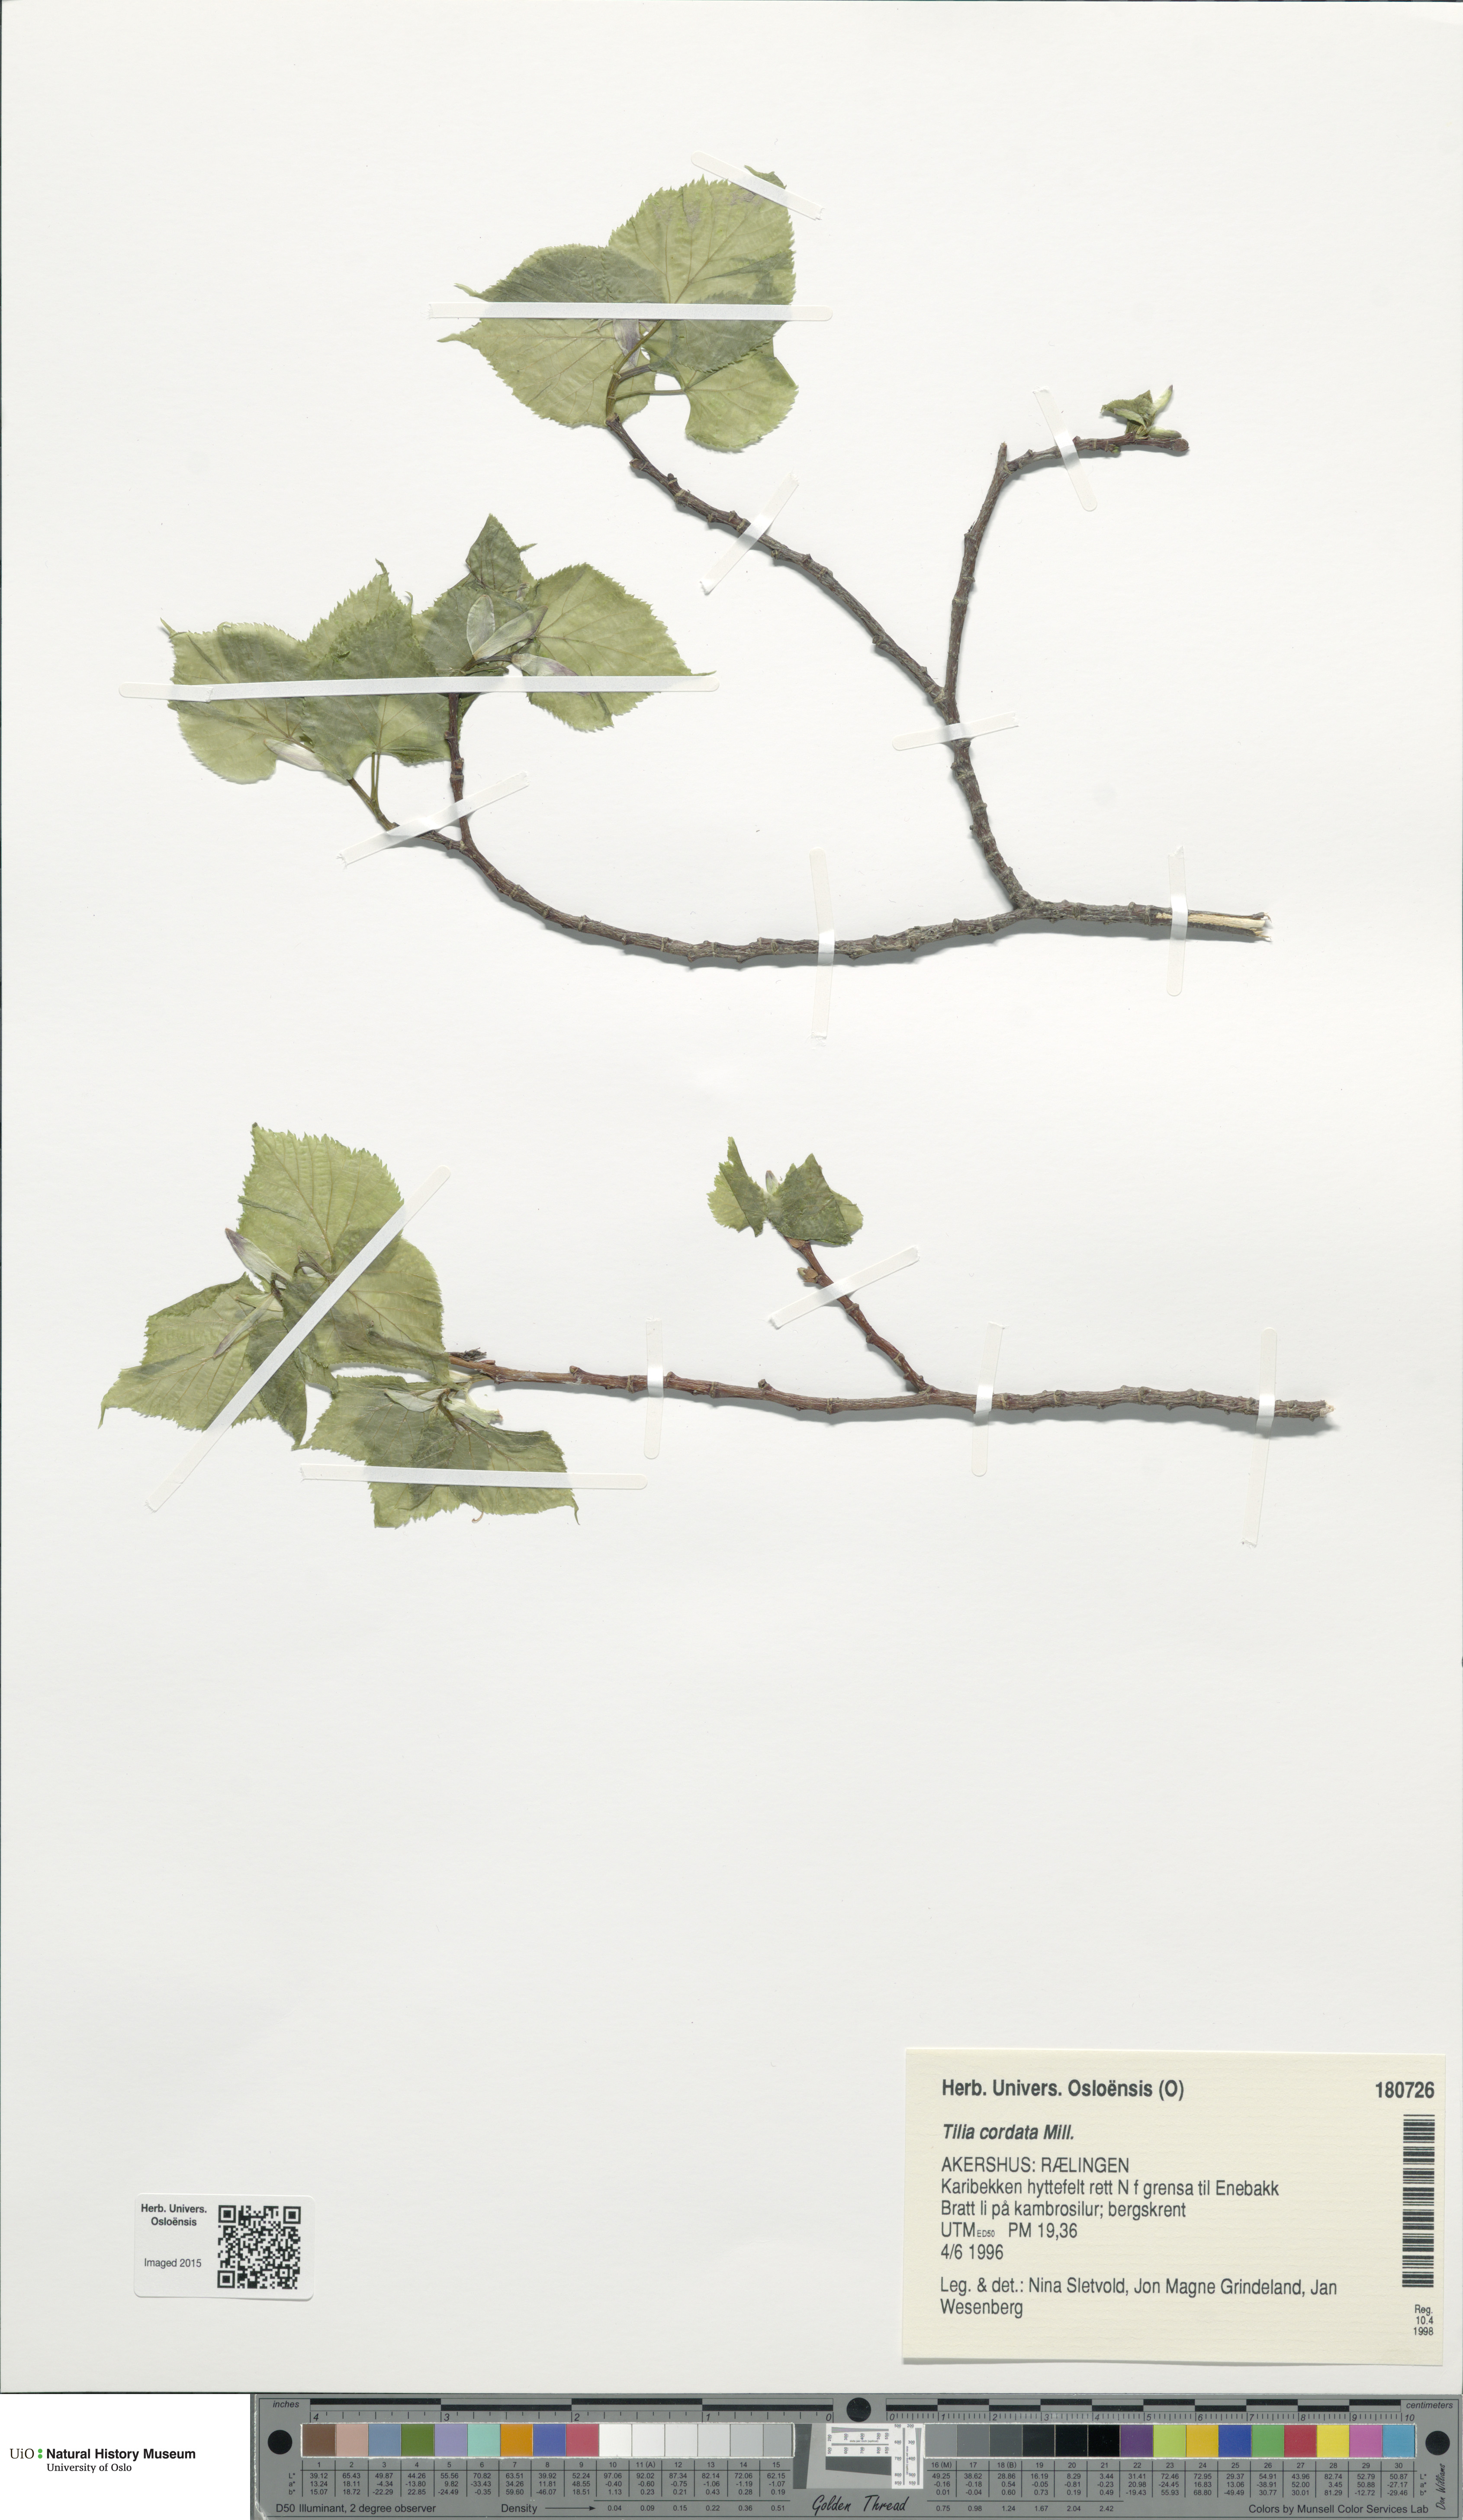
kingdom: Plantae
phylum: Tracheophyta
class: Magnoliopsida
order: Malvales
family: Malvaceae
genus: Tilia
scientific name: Tilia cordata
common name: Small-leaved lime
